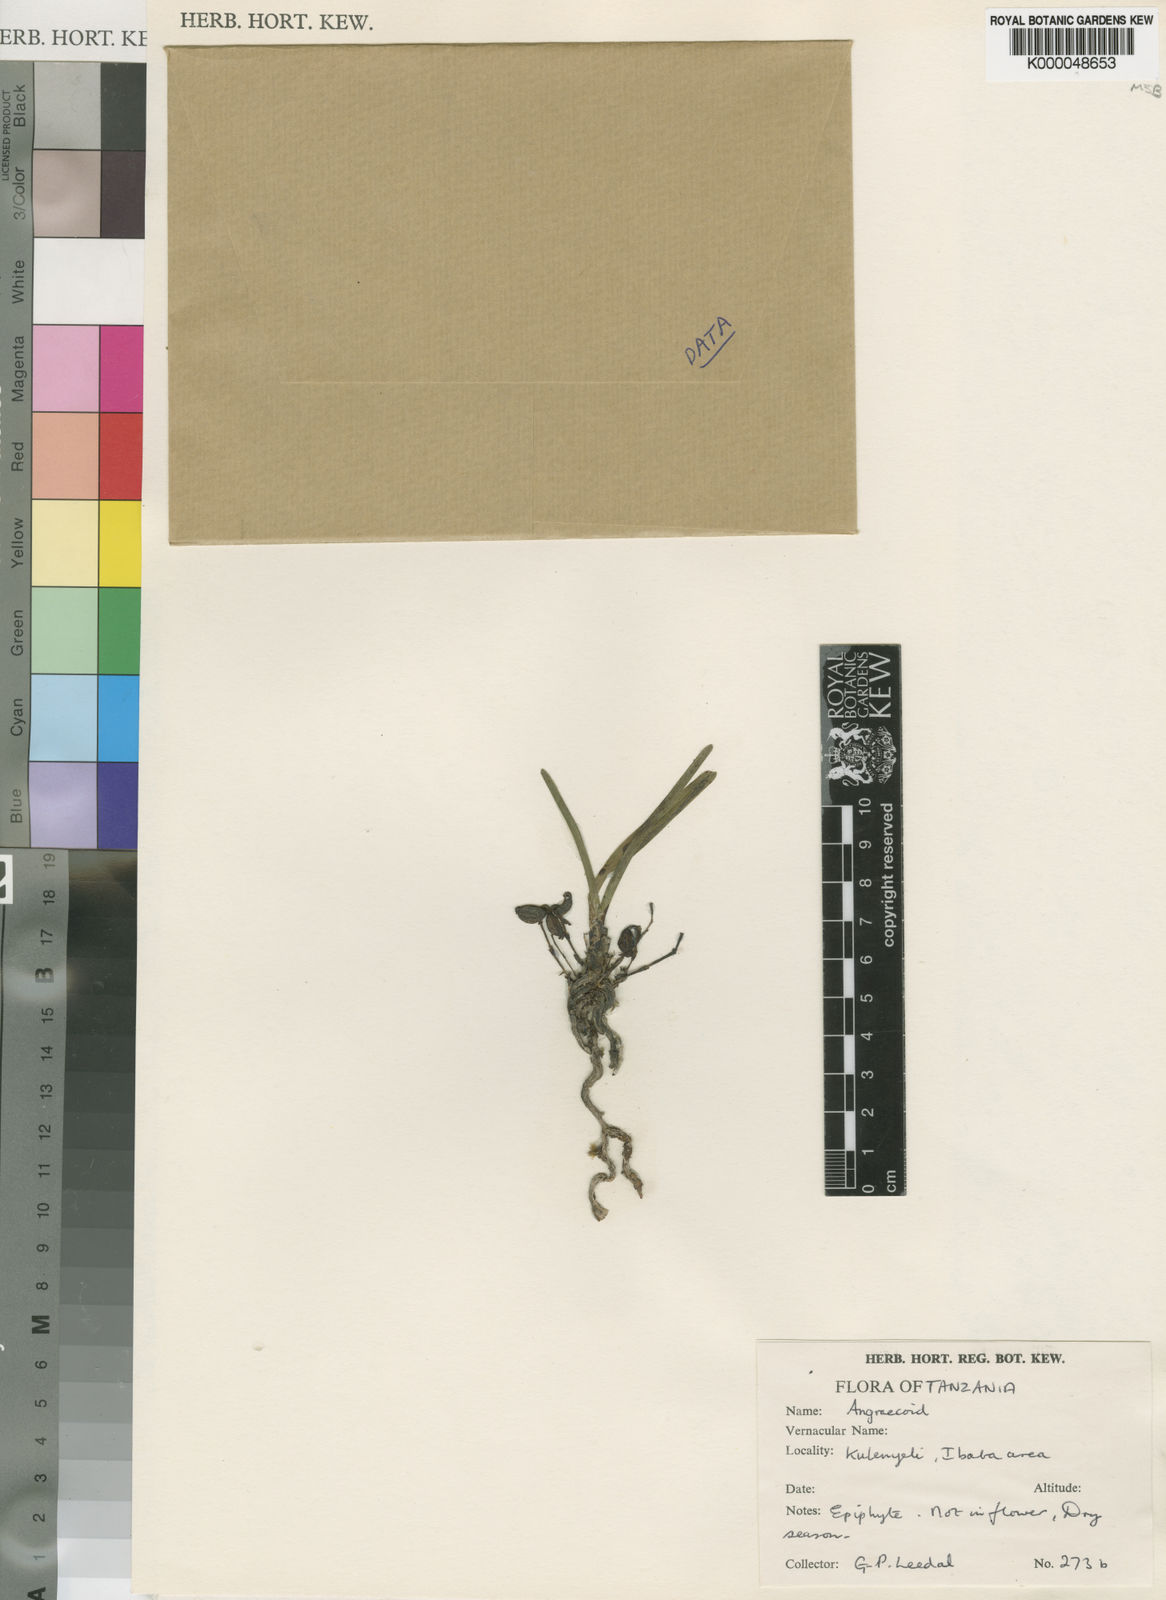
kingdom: Plantae
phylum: Tracheophyta
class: Liliopsida
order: Asparagales
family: Orchidaceae
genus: Cardiochilos
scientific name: Cardiochilos williamsonii
